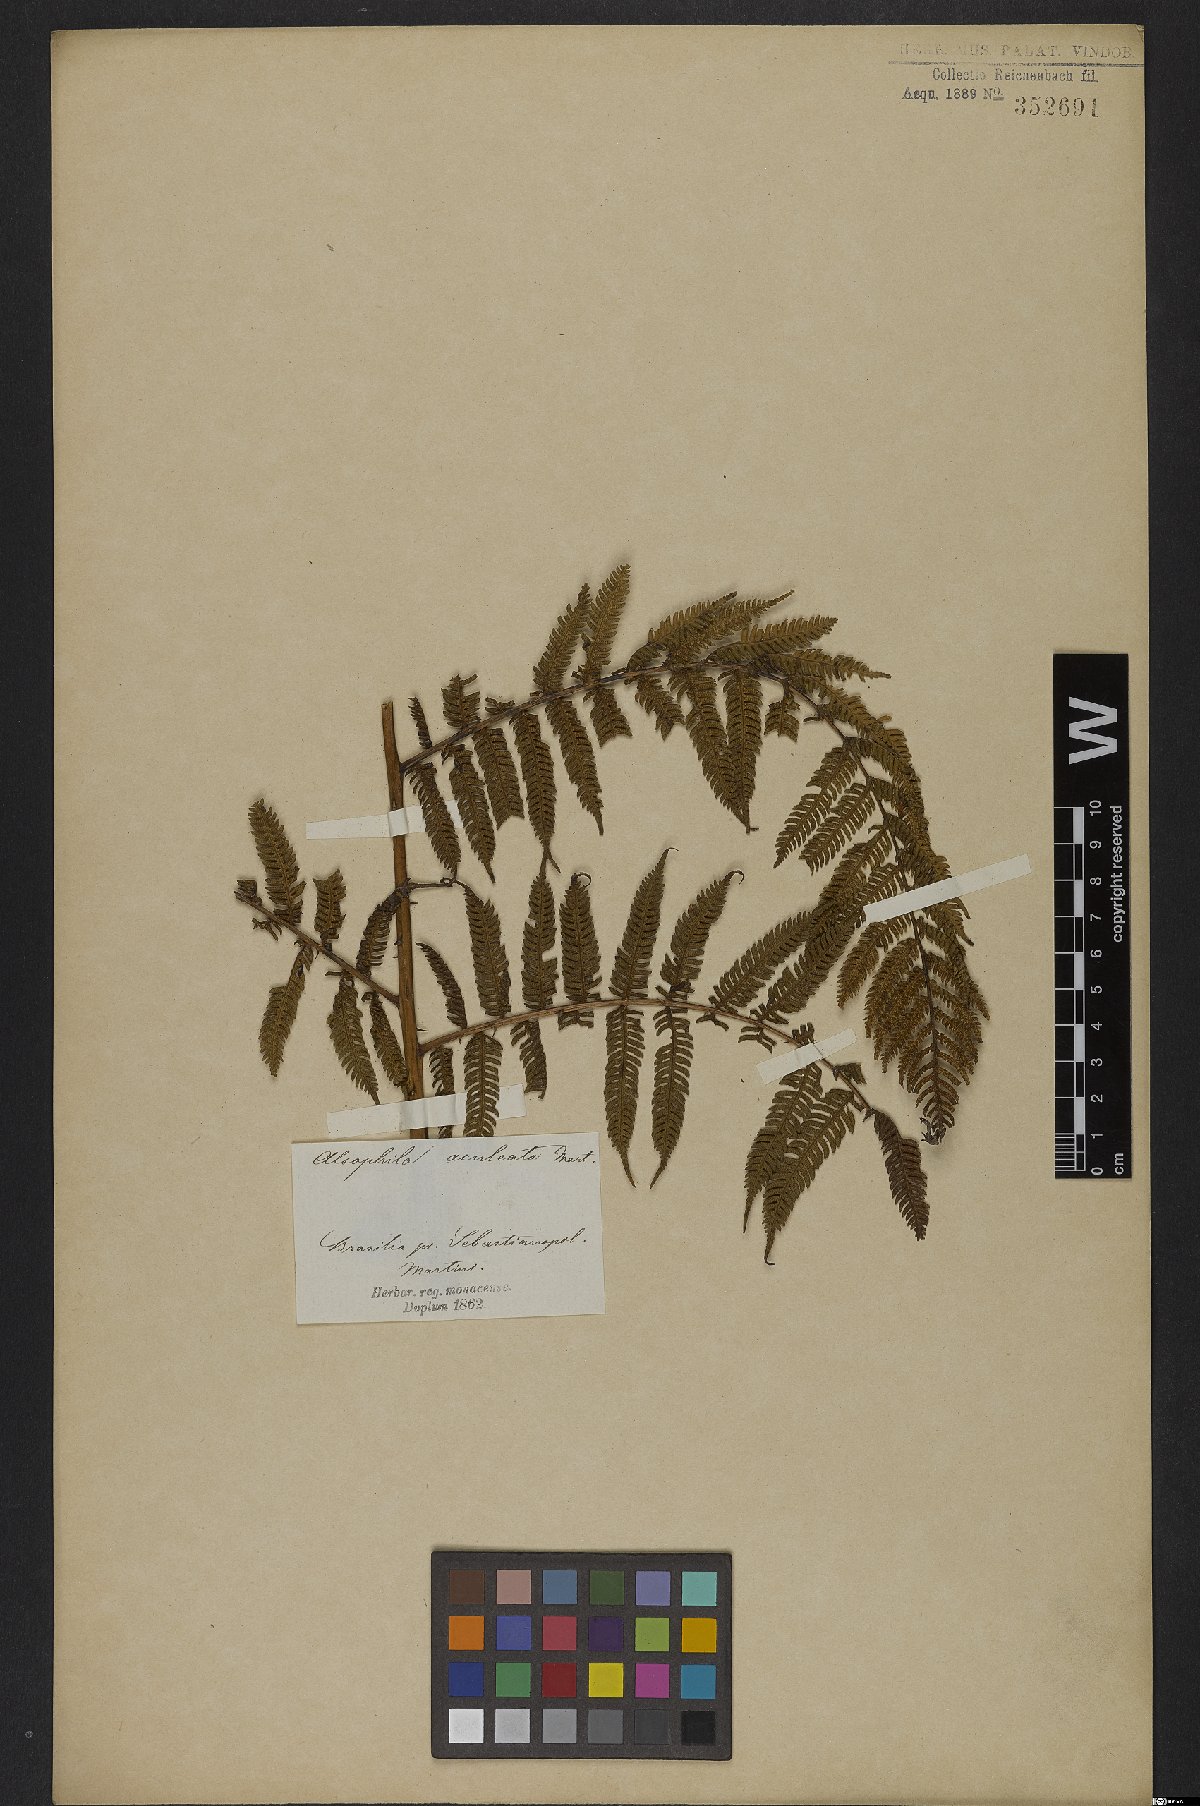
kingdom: Plantae
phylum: Tracheophyta
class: Polypodiopsida
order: Cyatheales
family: Cyatheaceae
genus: Cyathea
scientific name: Cyathea microdonta
